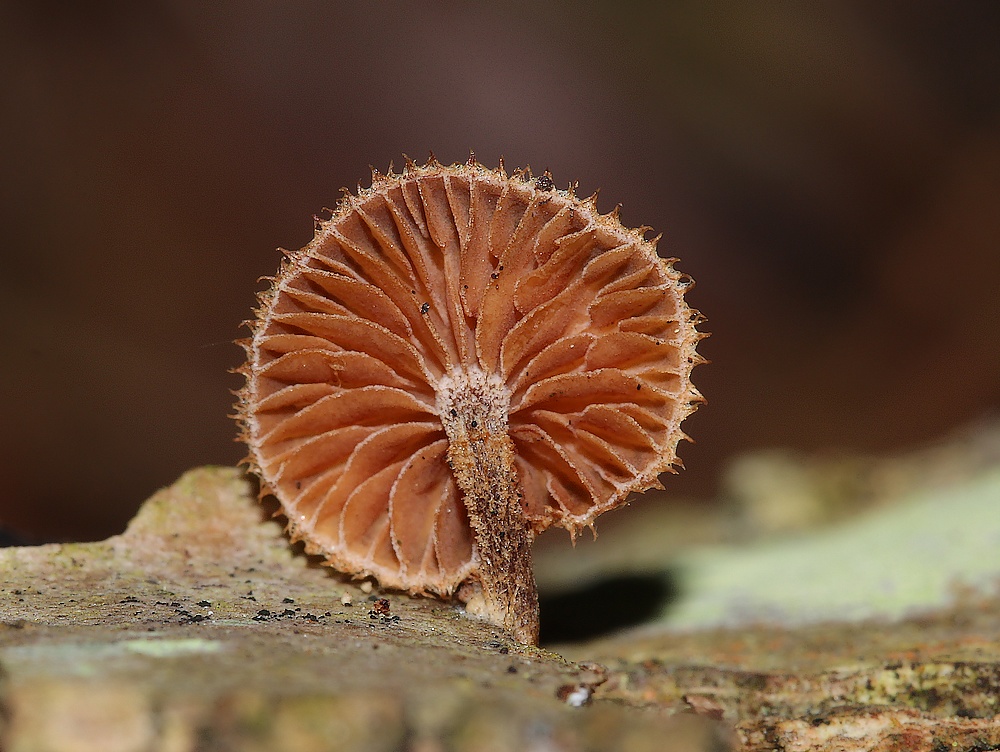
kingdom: Fungi
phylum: Basidiomycota
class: Agaricomycetes
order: Agaricales
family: Tubariaceae
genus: Phaeomarasmius
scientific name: Phaeomarasmius erinaceus
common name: spidsskælhat
